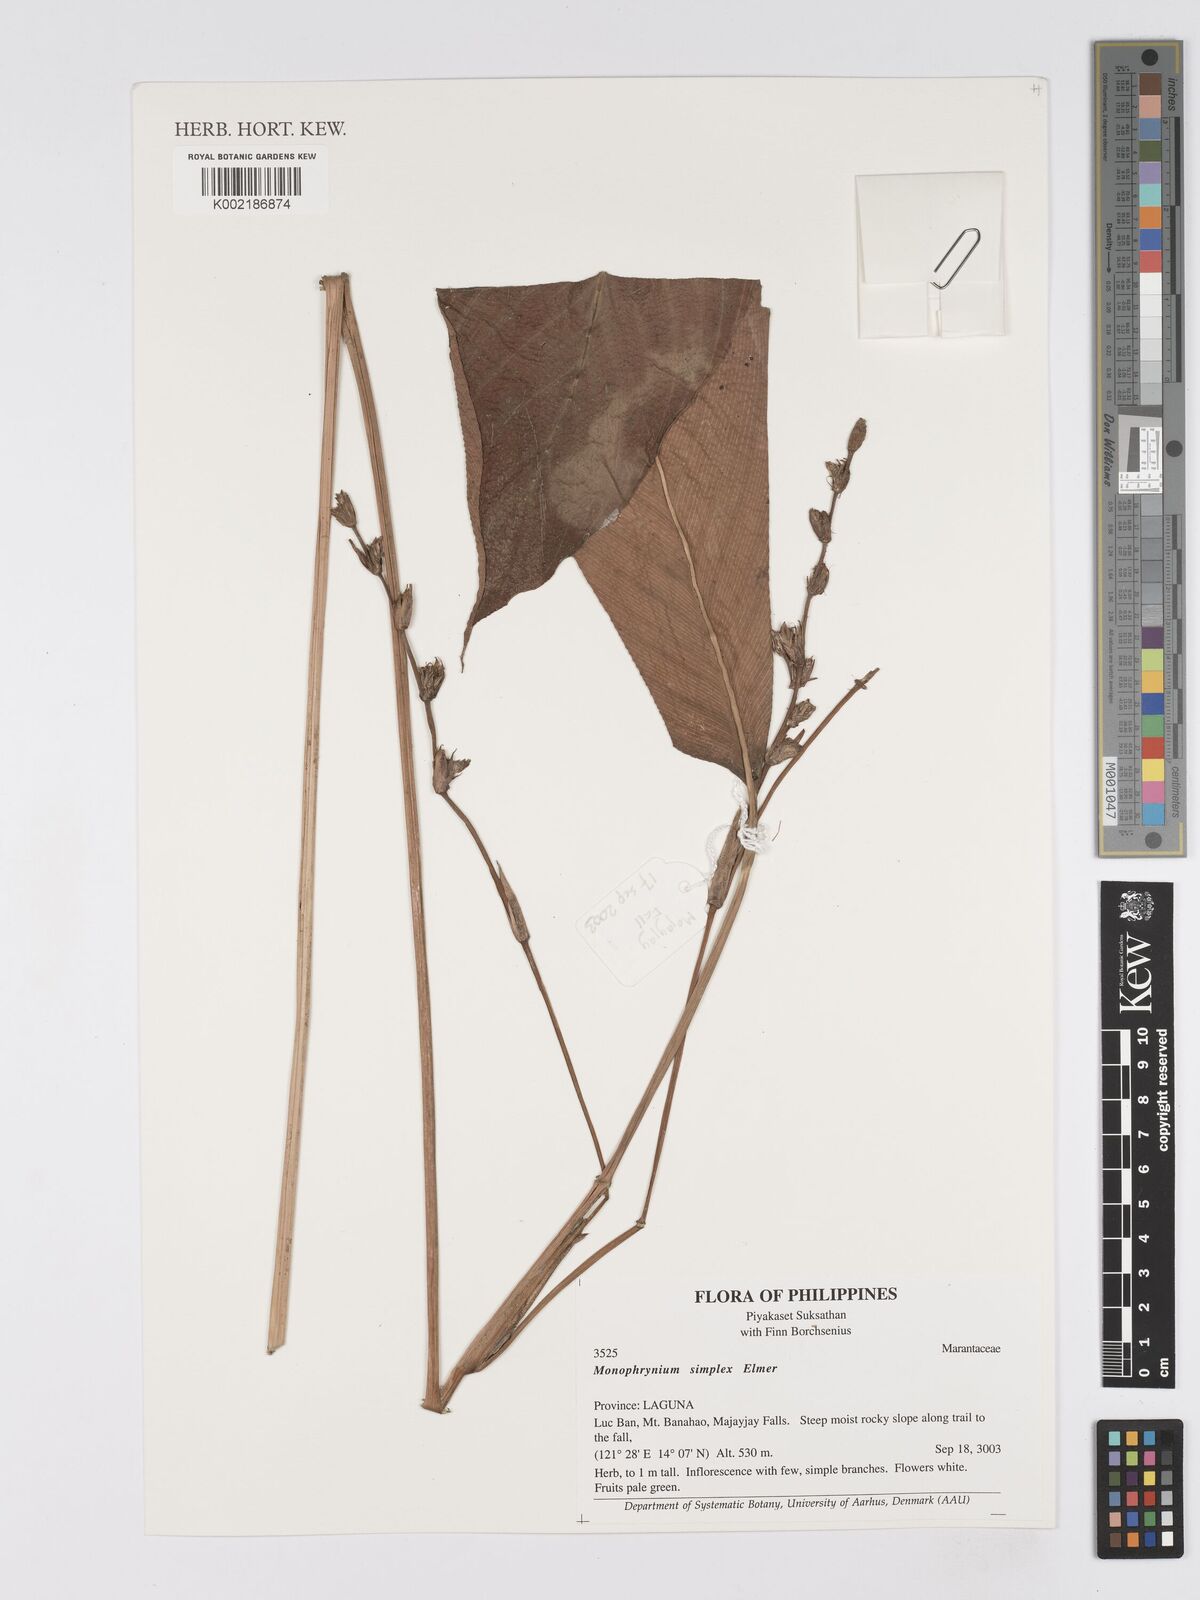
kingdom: Plantae
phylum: Tracheophyta
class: Liliopsida
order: Zingiberales
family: Marantaceae
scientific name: Marantaceae
